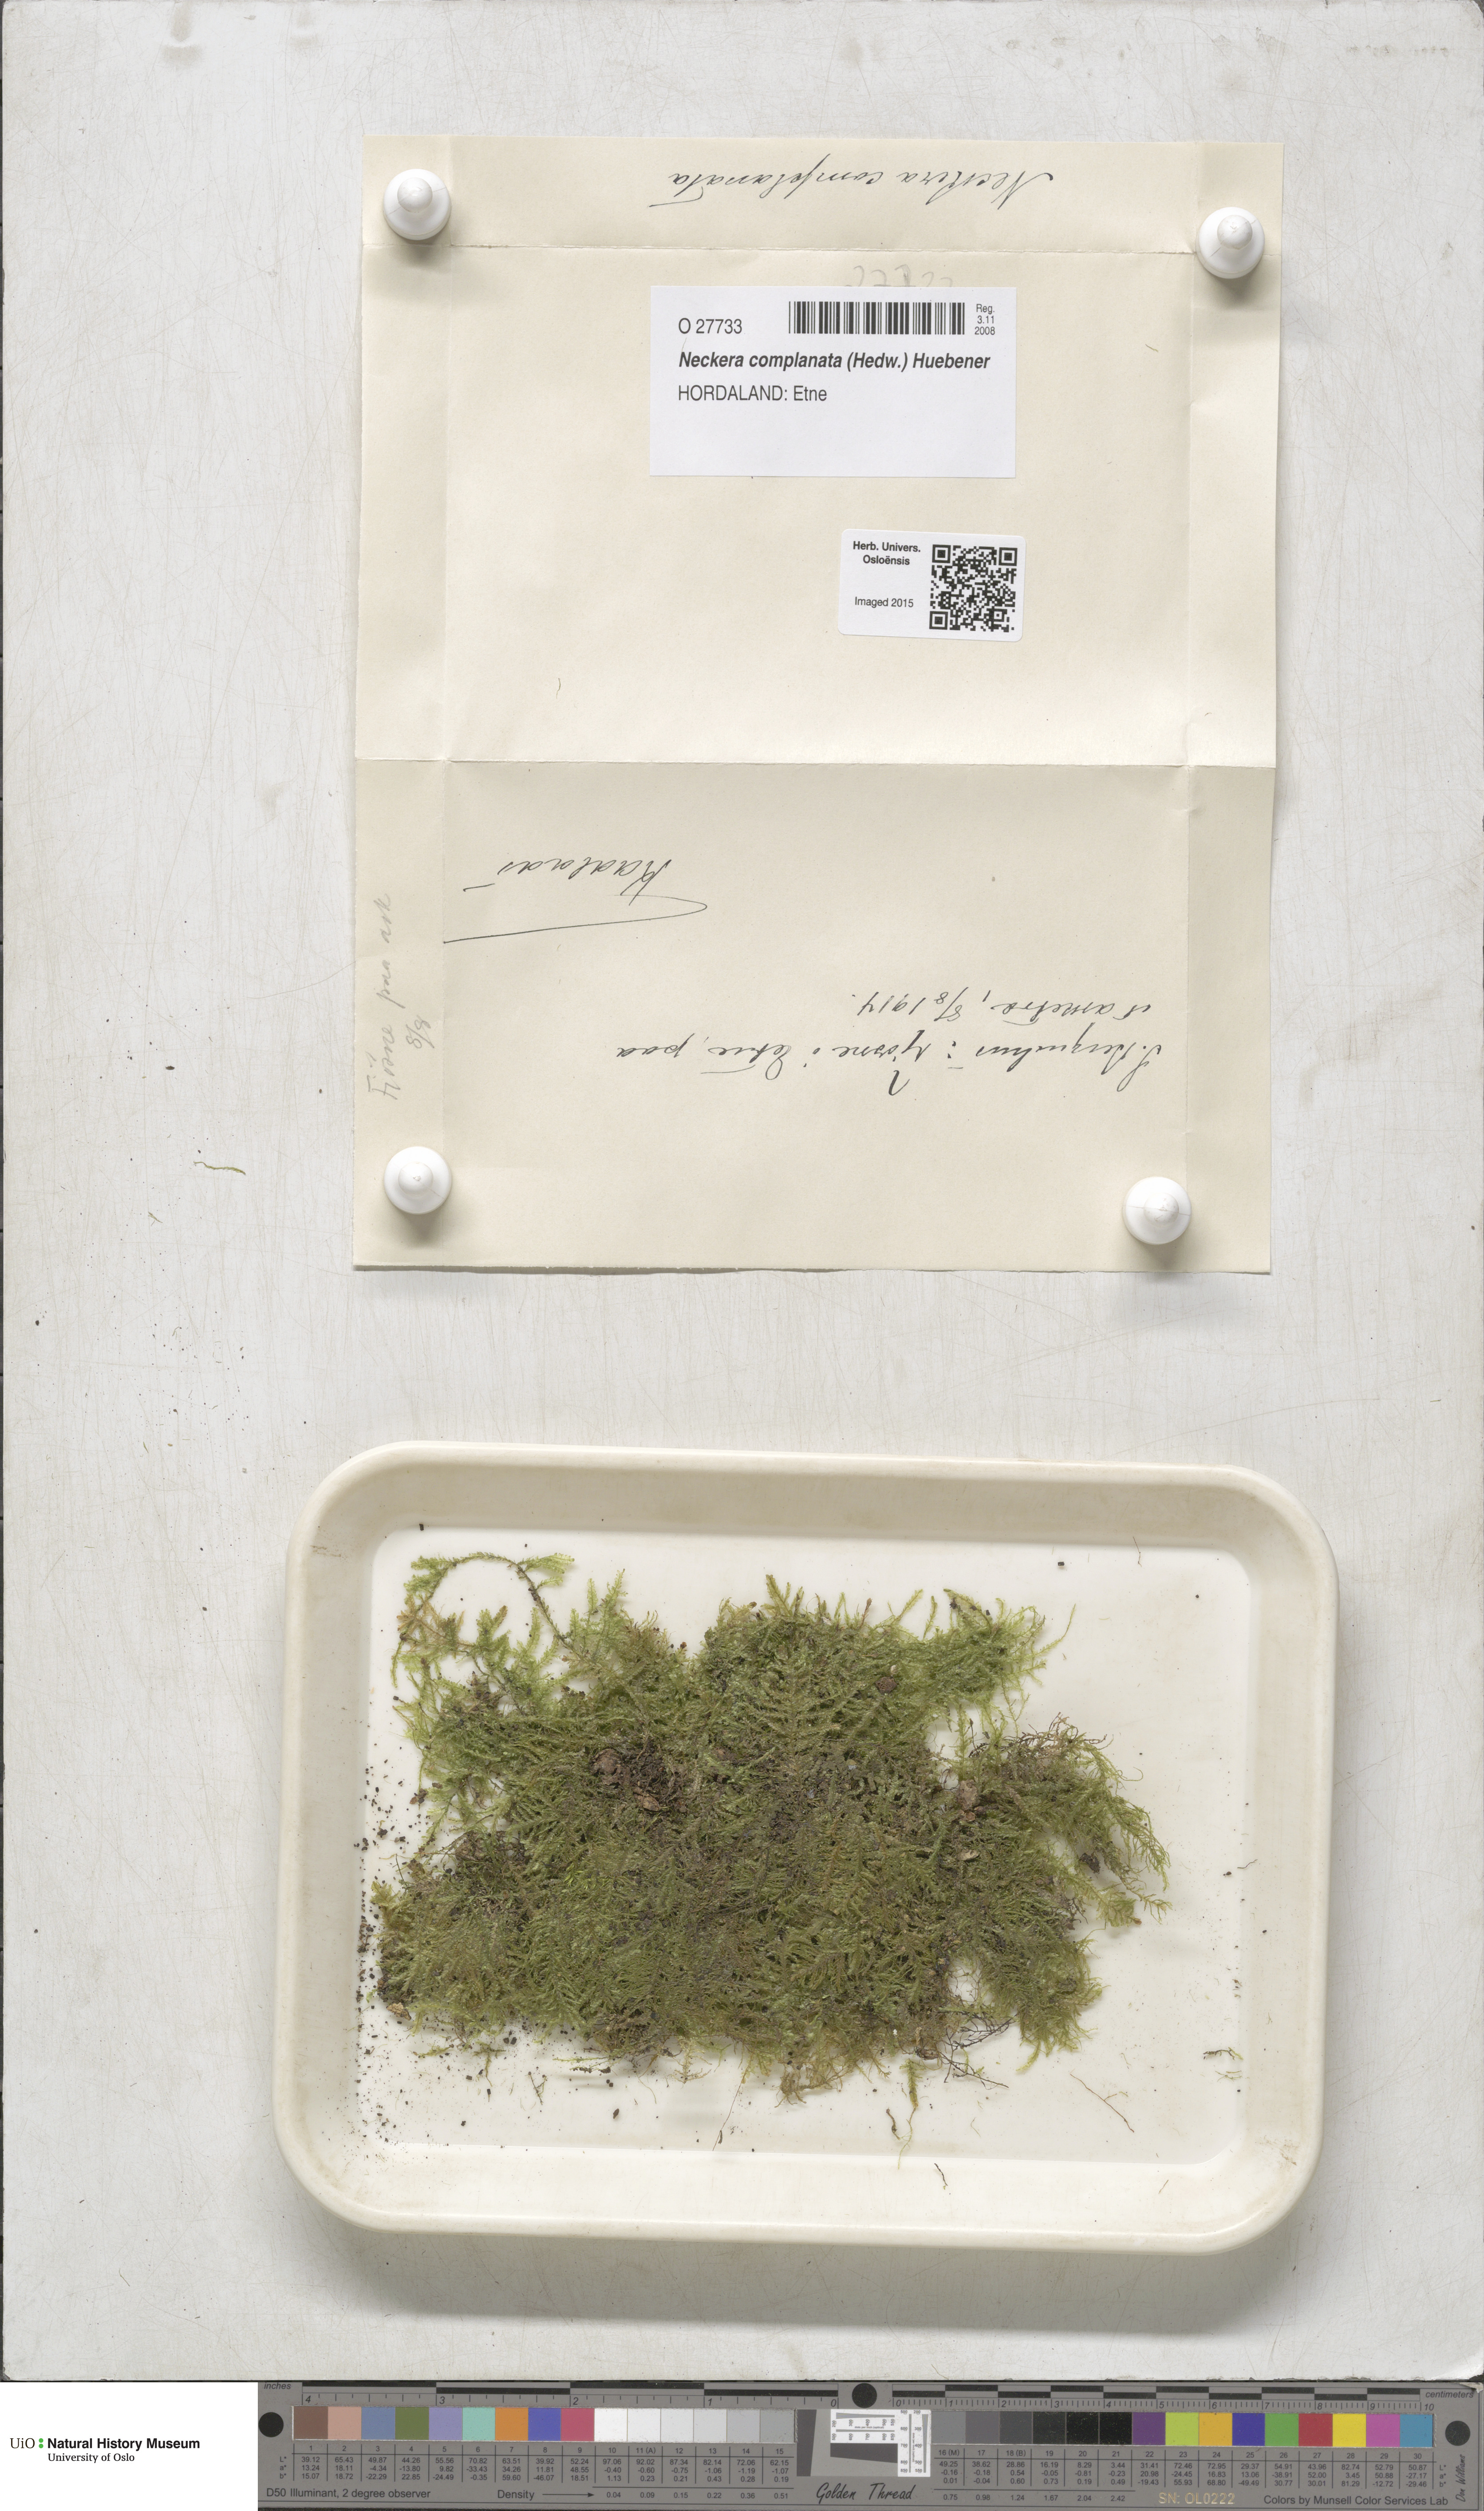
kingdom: Plantae
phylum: Bryophyta
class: Bryopsida
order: Hypnales
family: Neckeraceae
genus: Alleniella
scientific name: Alleniella complanata
